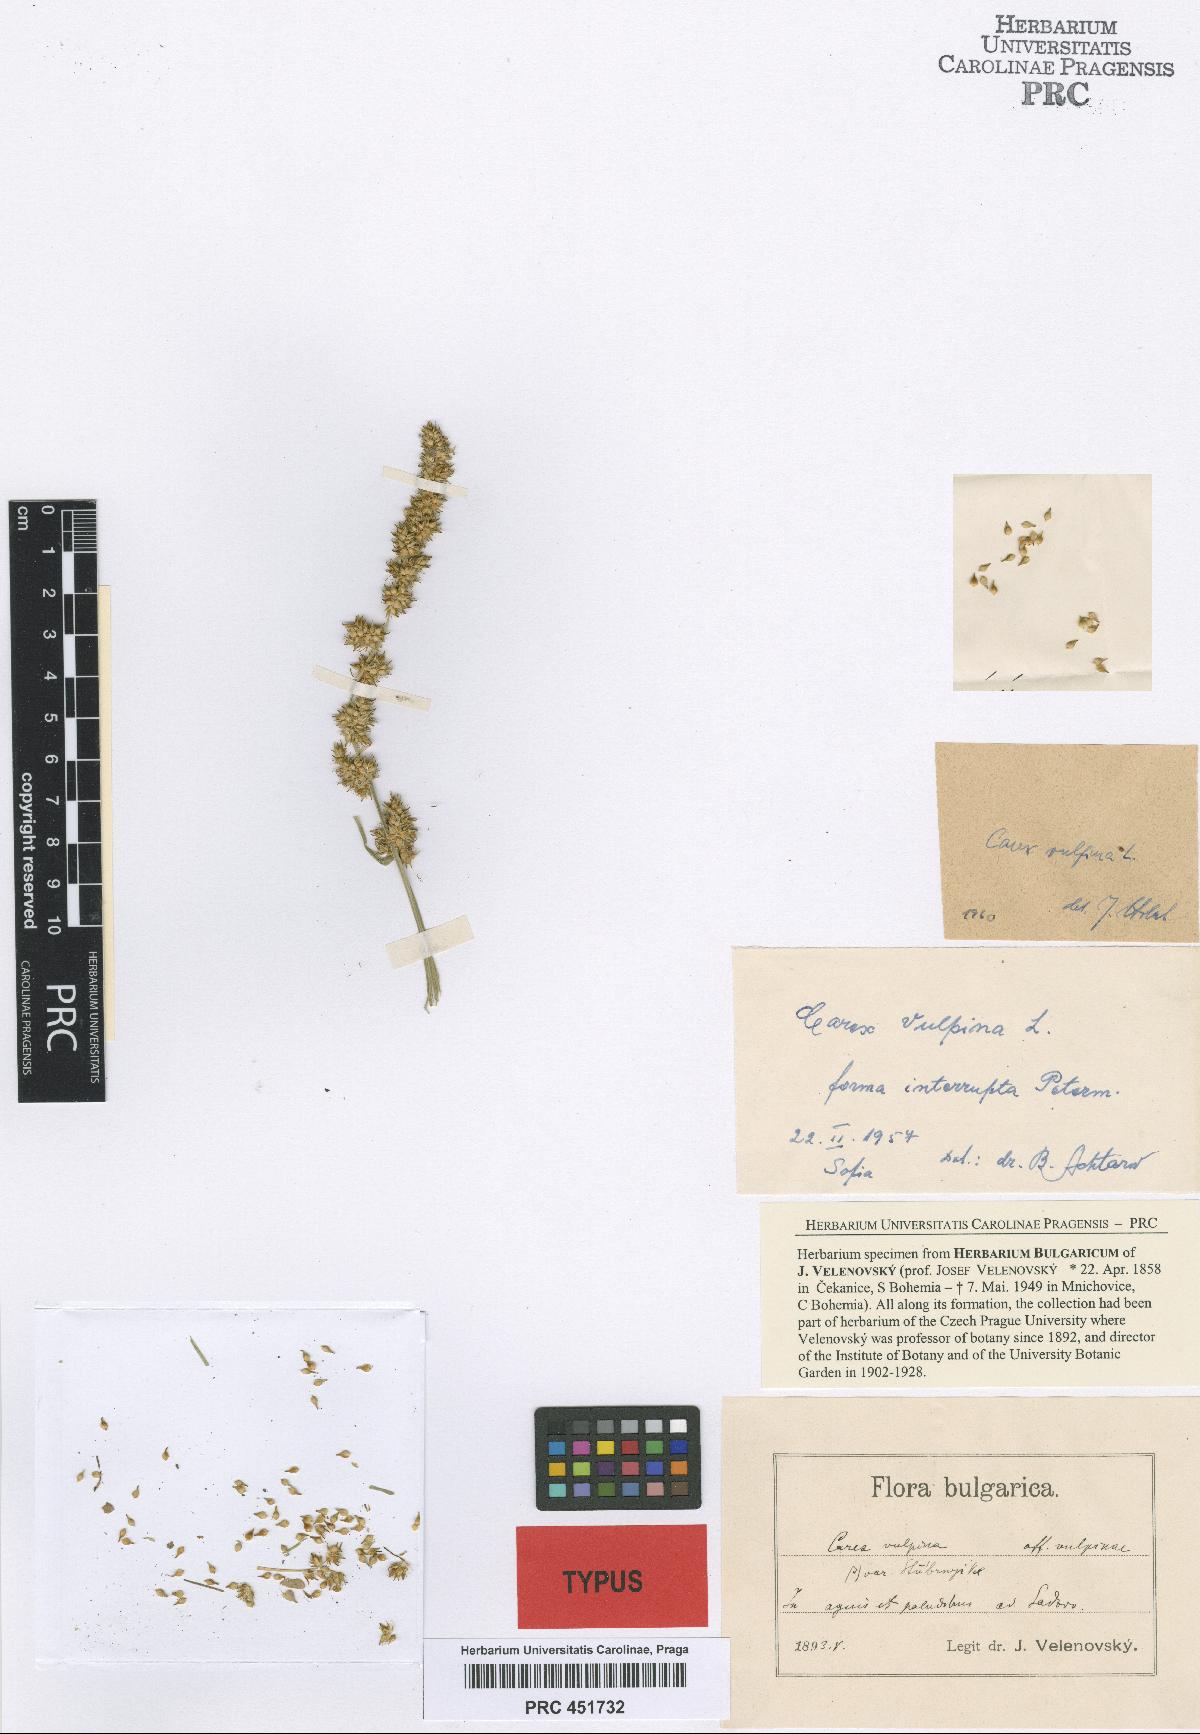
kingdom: Plantae
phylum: Tracheophyta
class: Liliopsida
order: Poales
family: Cyperaceae
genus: Carex
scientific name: Carex vulpina
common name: True fox-sedge
